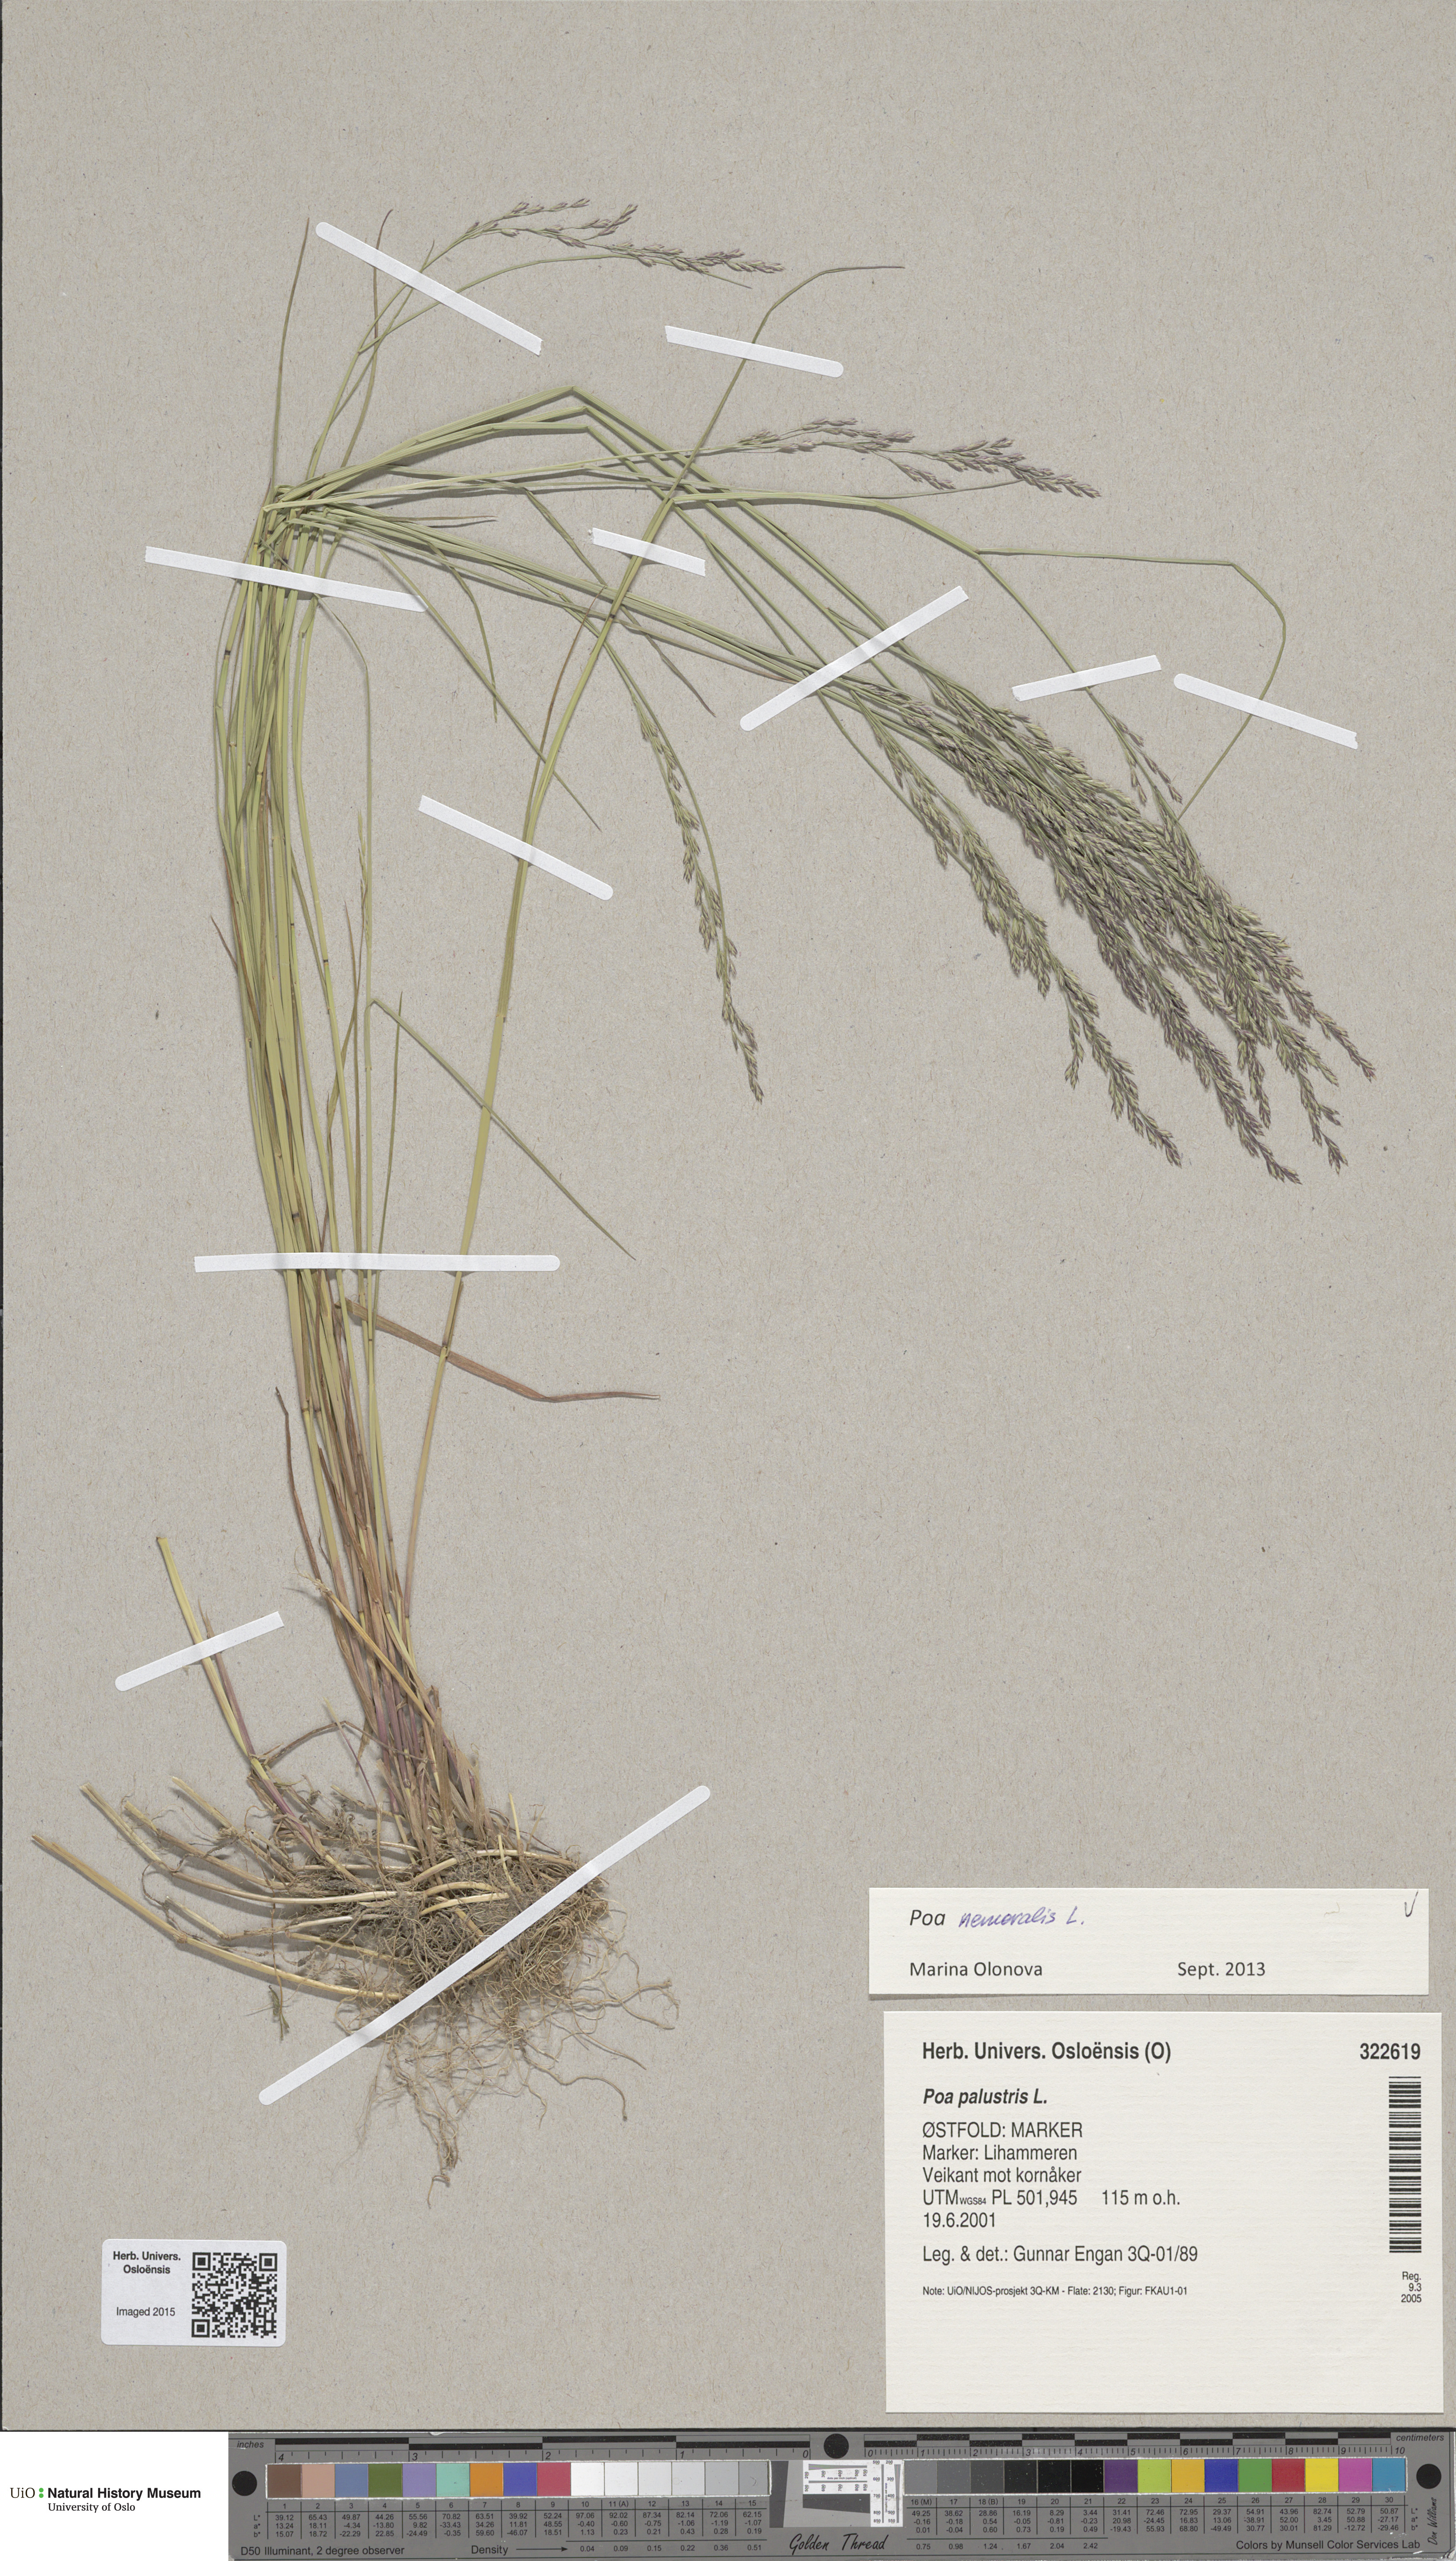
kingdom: Plantae
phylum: Tracheophyta
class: Liliopsida
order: Poales
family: Poaceae
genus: Poa
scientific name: Poa
